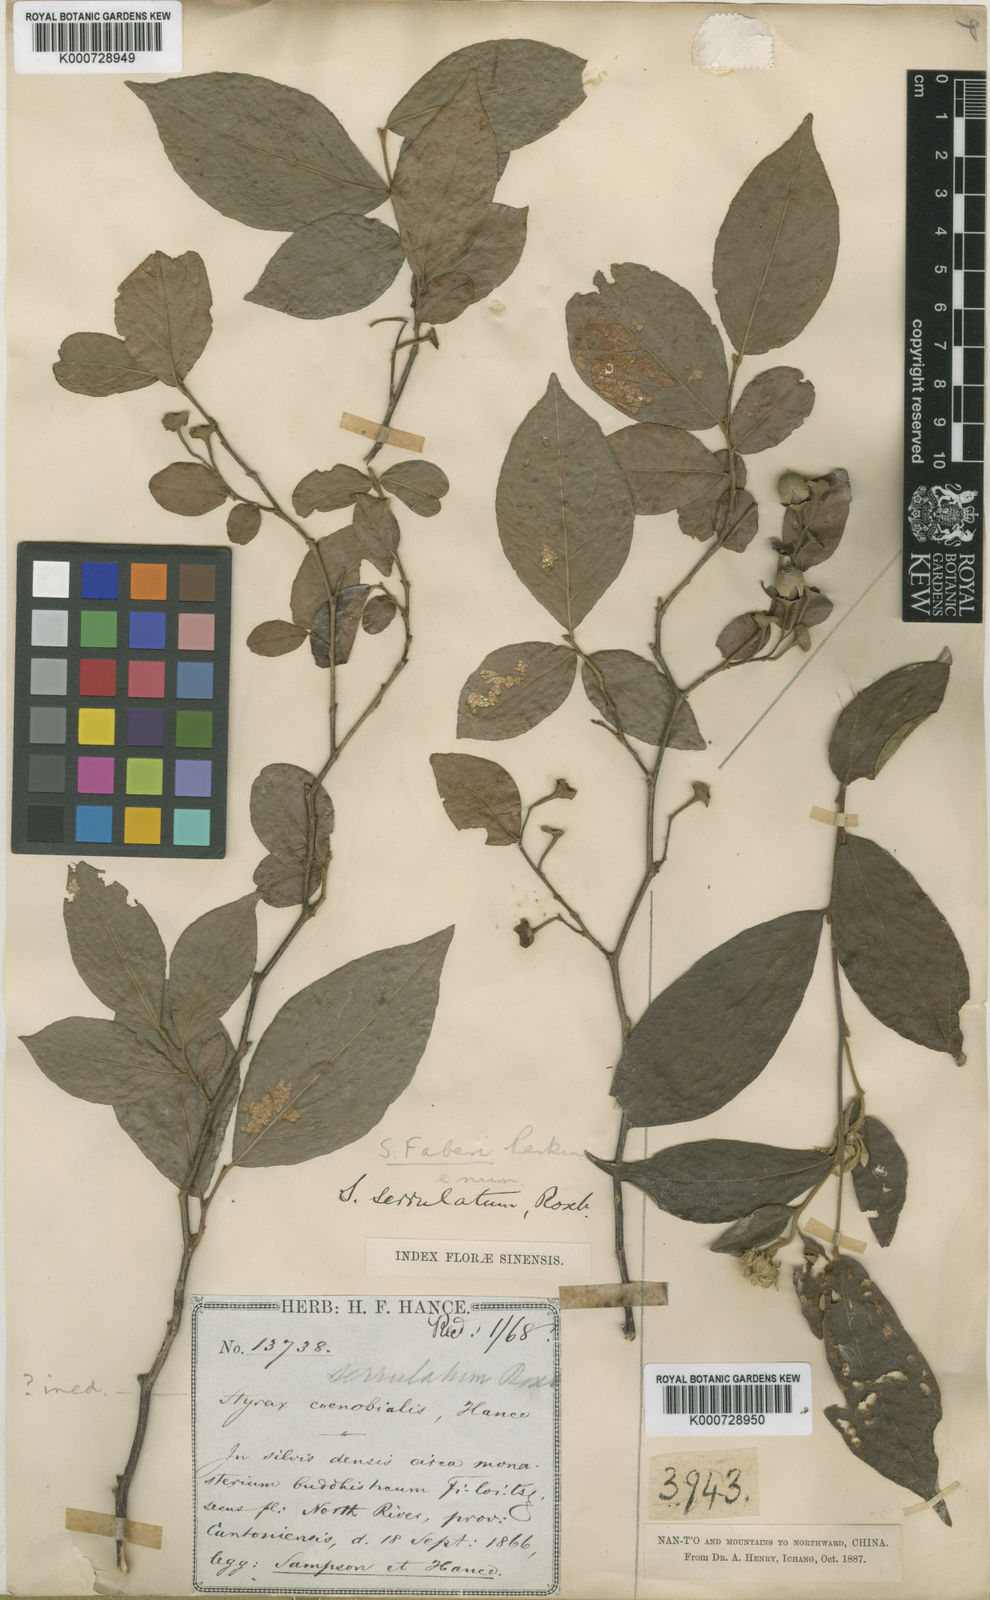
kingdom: Plantae
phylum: Tracheophyta
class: Magnoliopsida
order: Ericales
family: Styracaceae
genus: Styrax
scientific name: Styrax faberi
